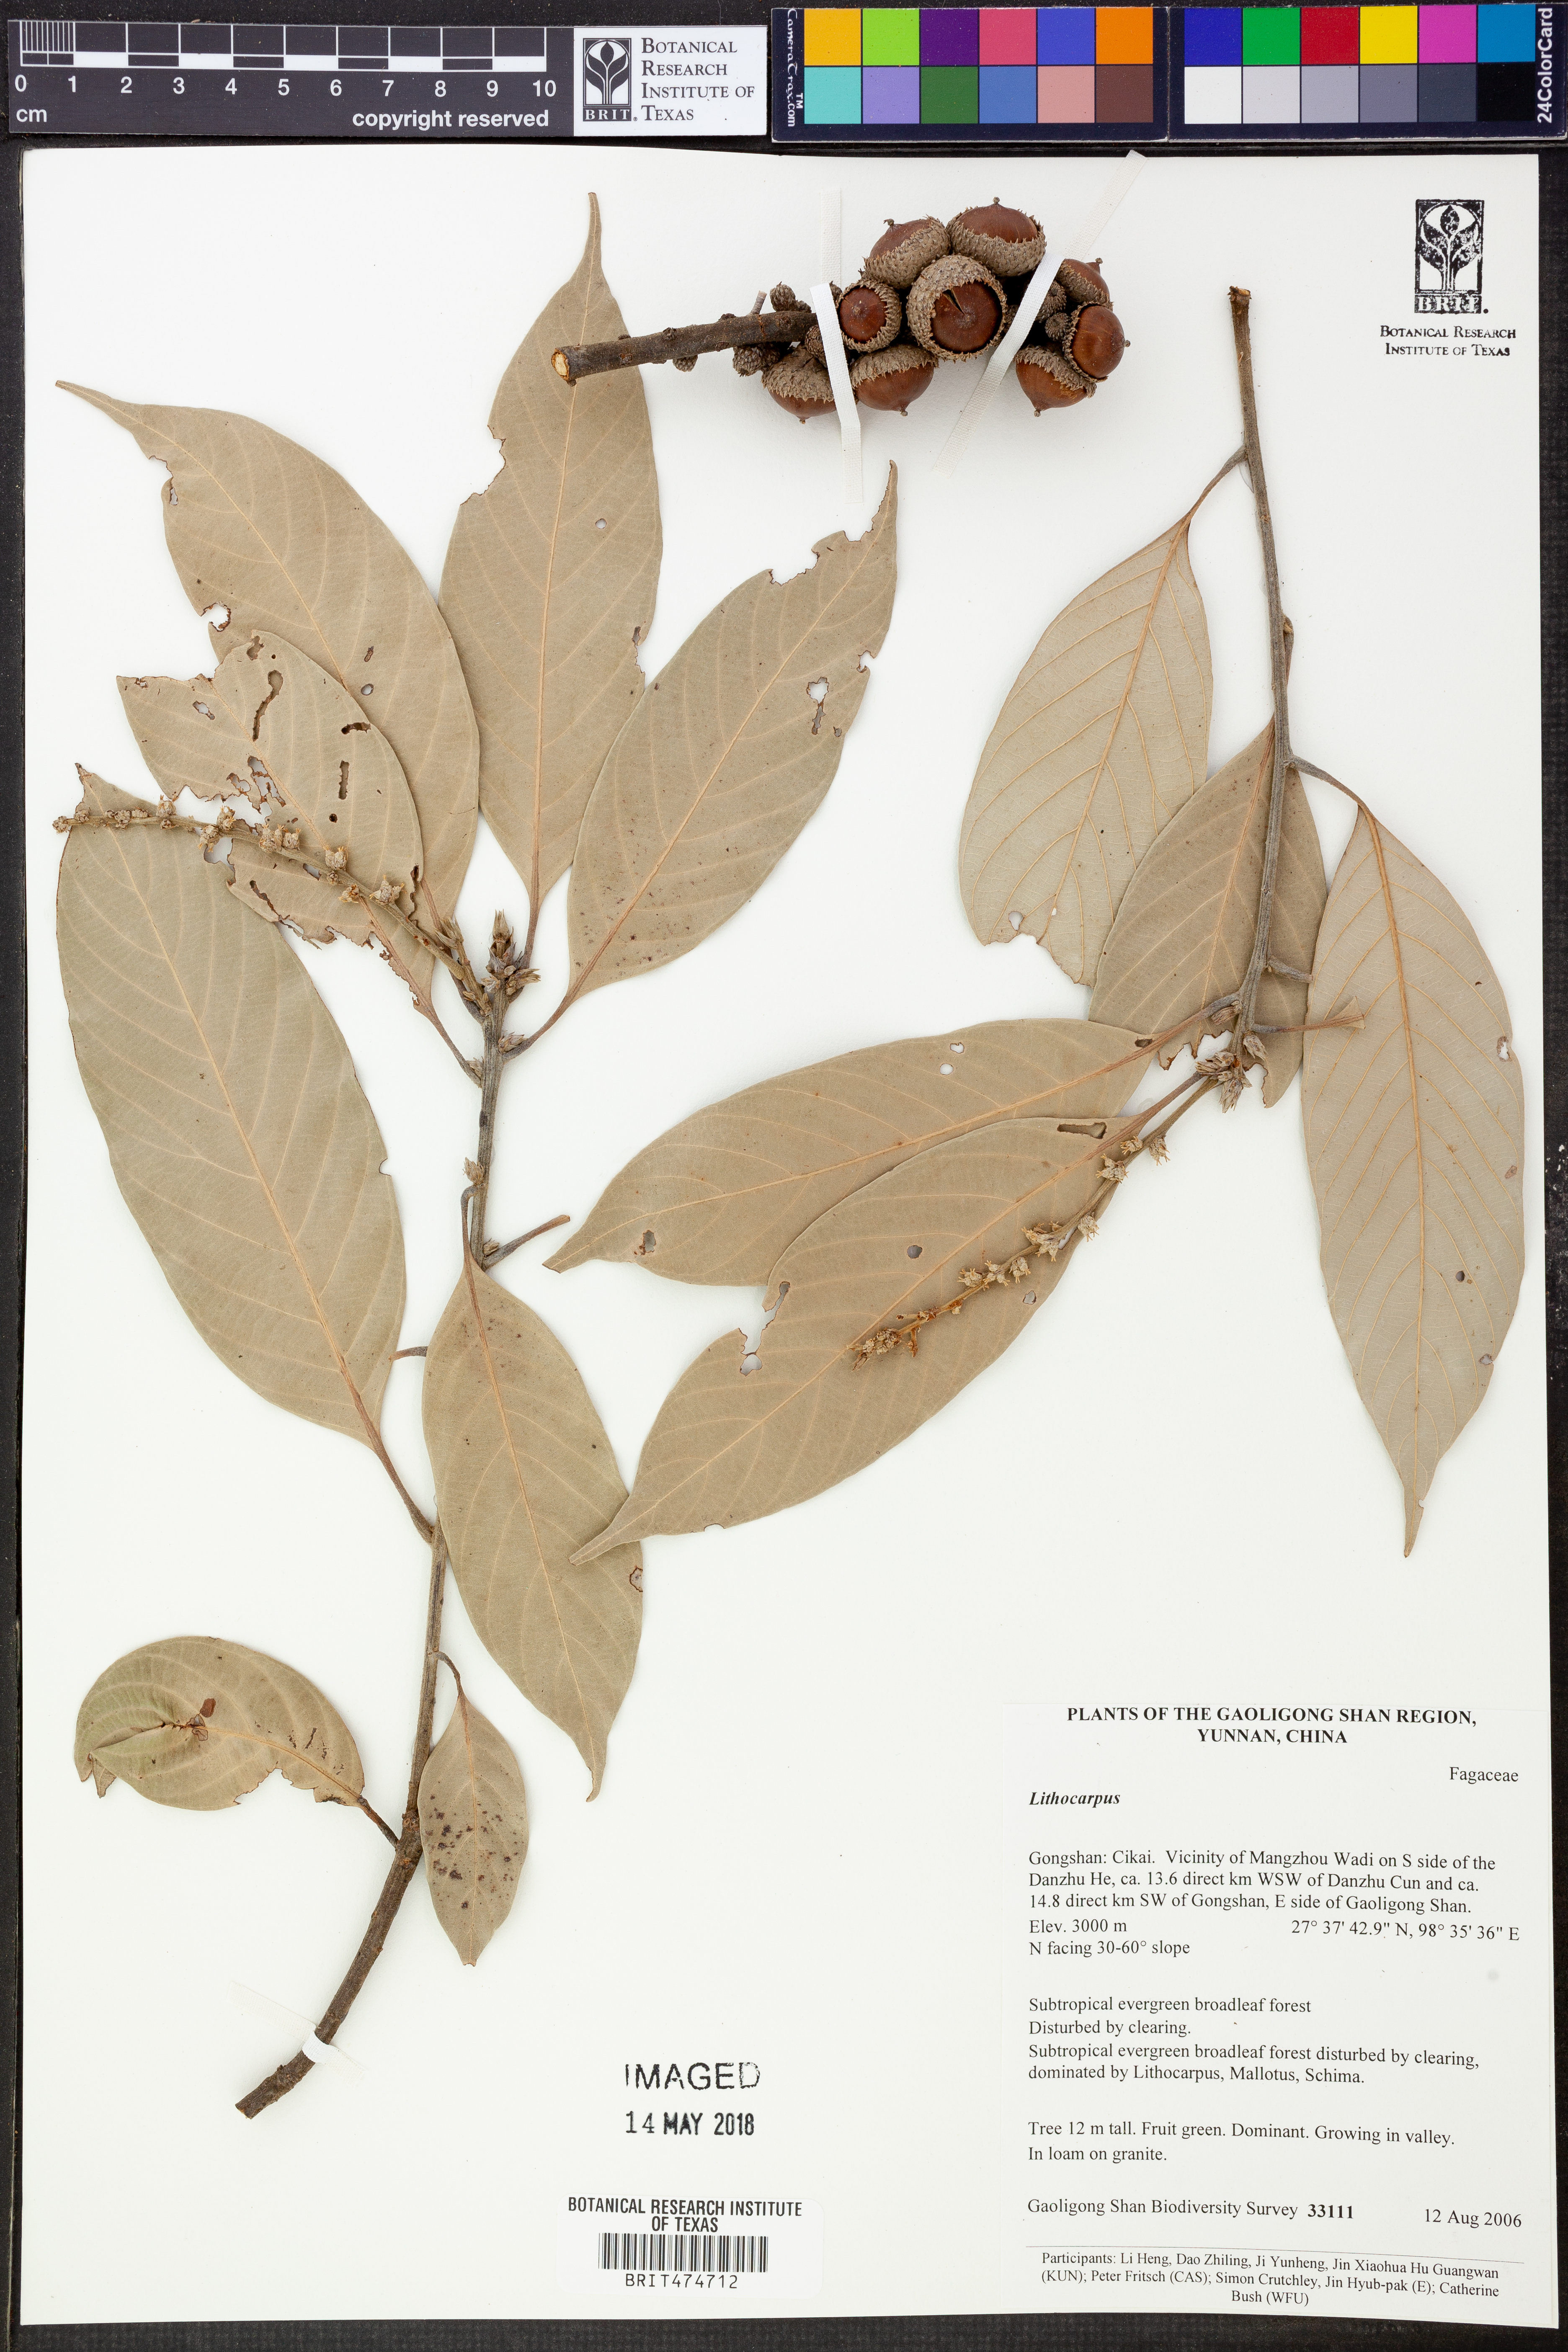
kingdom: Plantae
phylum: Tracheophyta
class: Magnoliopsida
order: Fagales
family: Fagaceae
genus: Lithocarpus
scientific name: Lithocarpus
